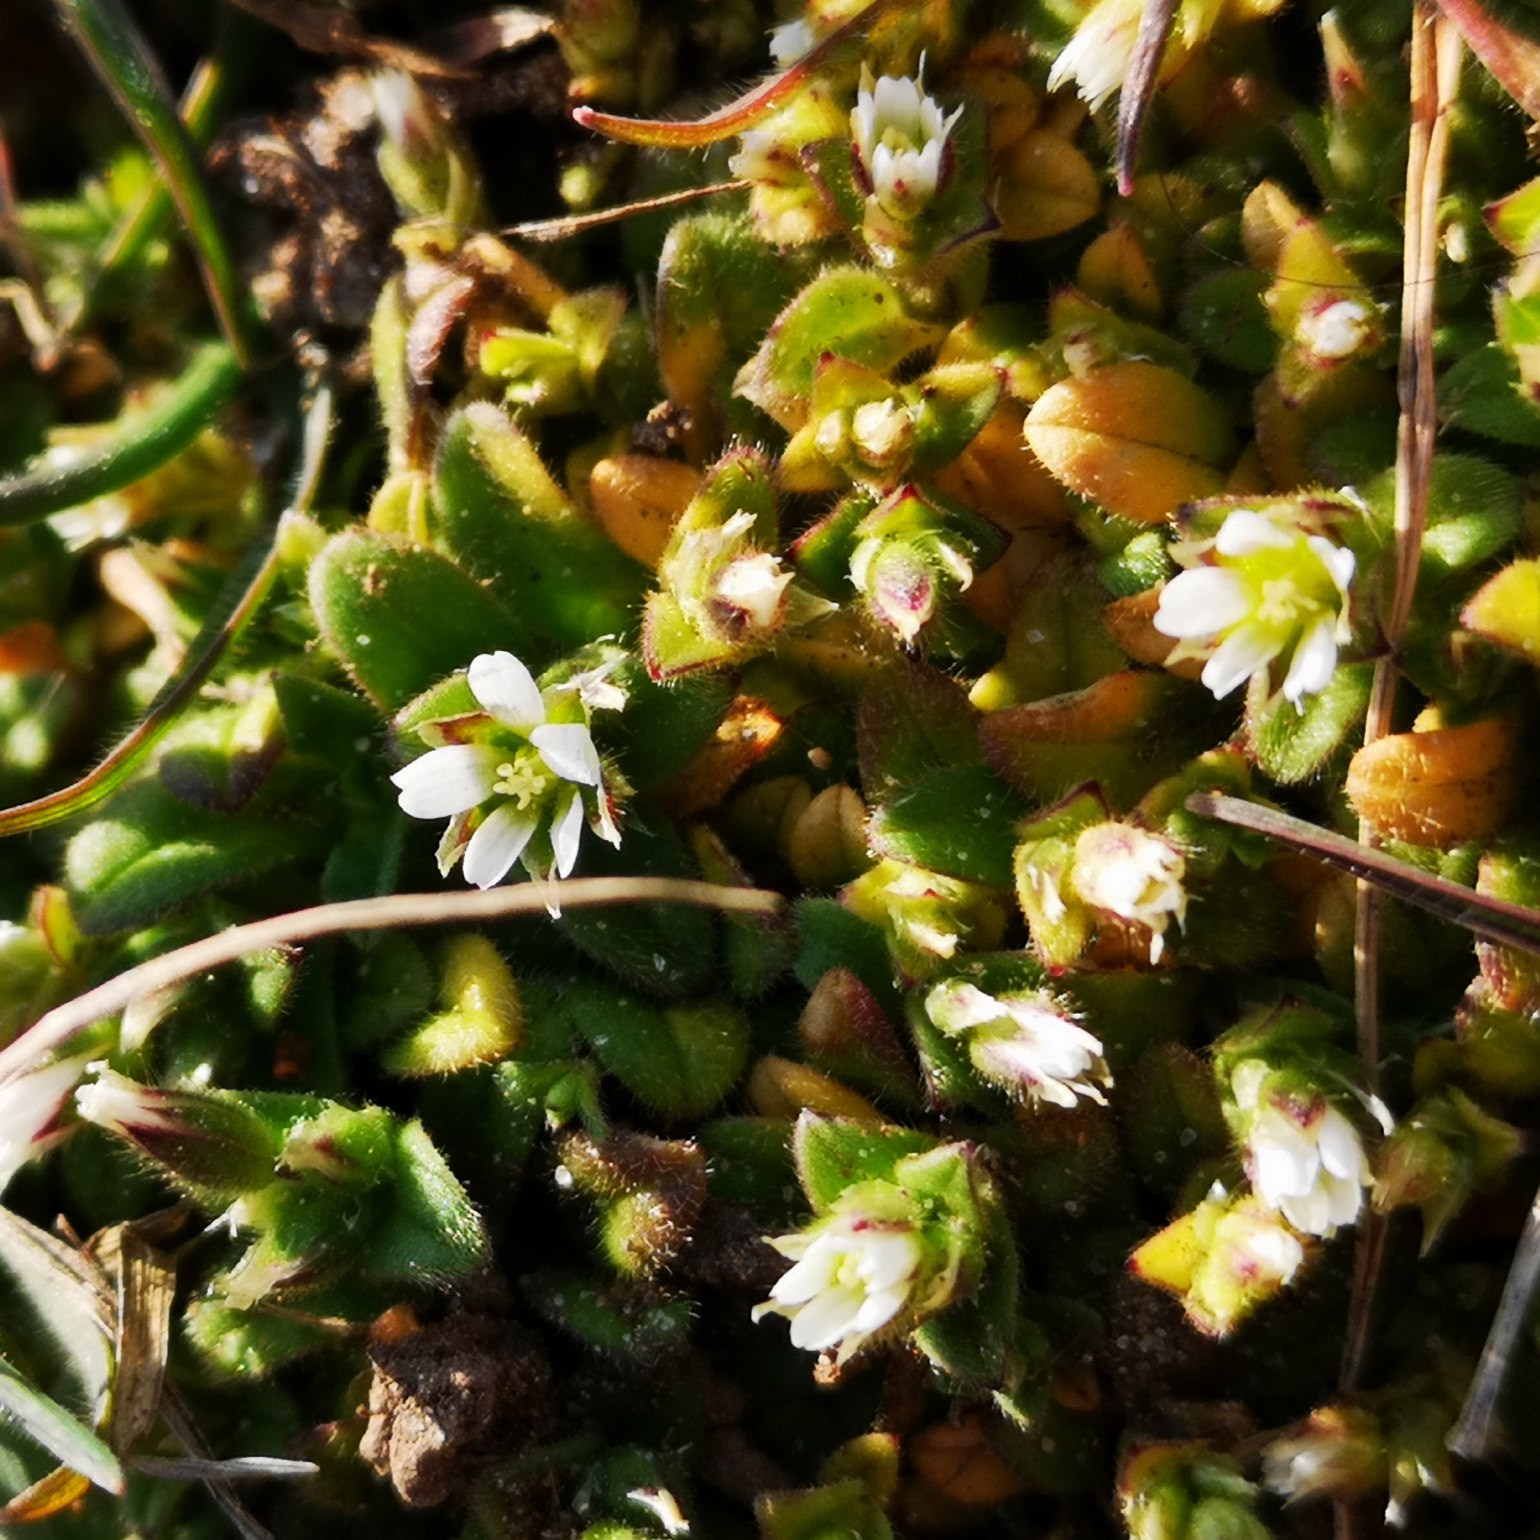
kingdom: Plantae
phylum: Tracheophyta
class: Magnoliopsida
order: Caryophyllales
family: Caryophyllaceae
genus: Cerastium
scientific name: Cerastium semidecandrum
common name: Femhannet hønsetarm
